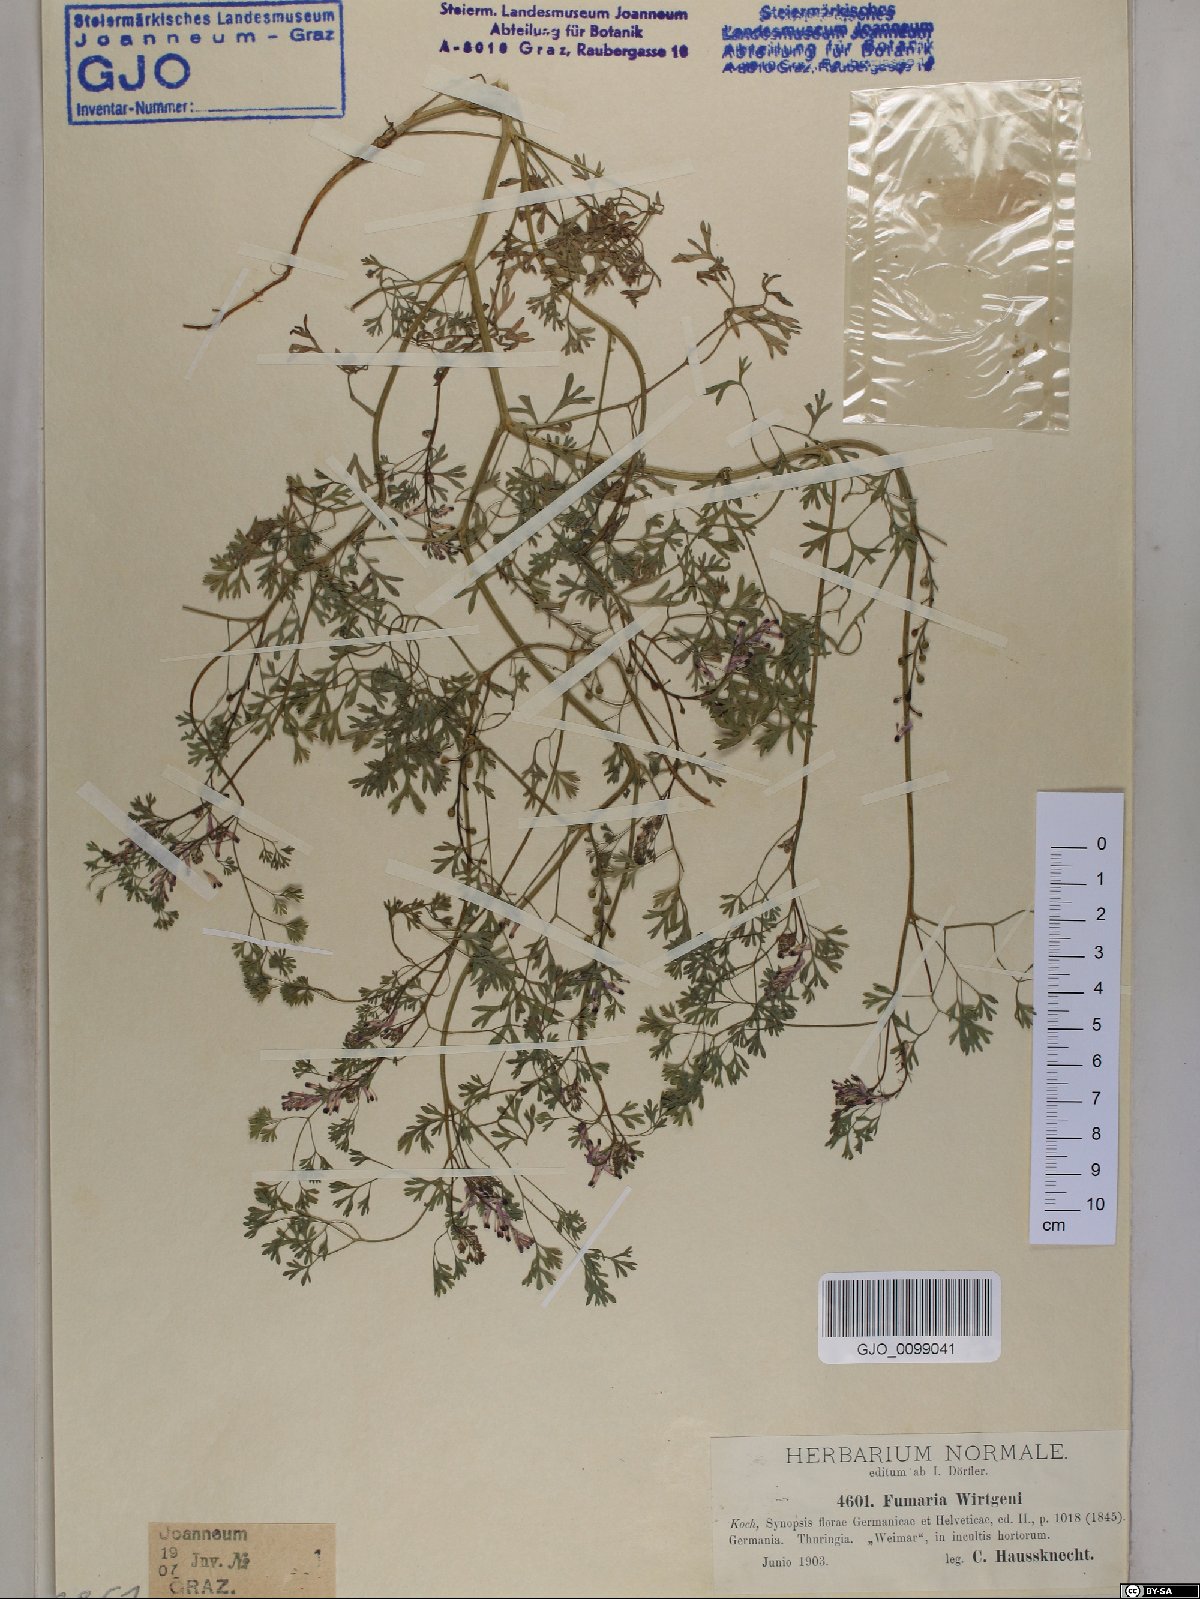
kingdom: Plantae
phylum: Tracheophyta
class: Magnoliopsida
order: Ranunculales
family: Papaveraceae
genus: Fumaria
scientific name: Fumaria wirtgenii
